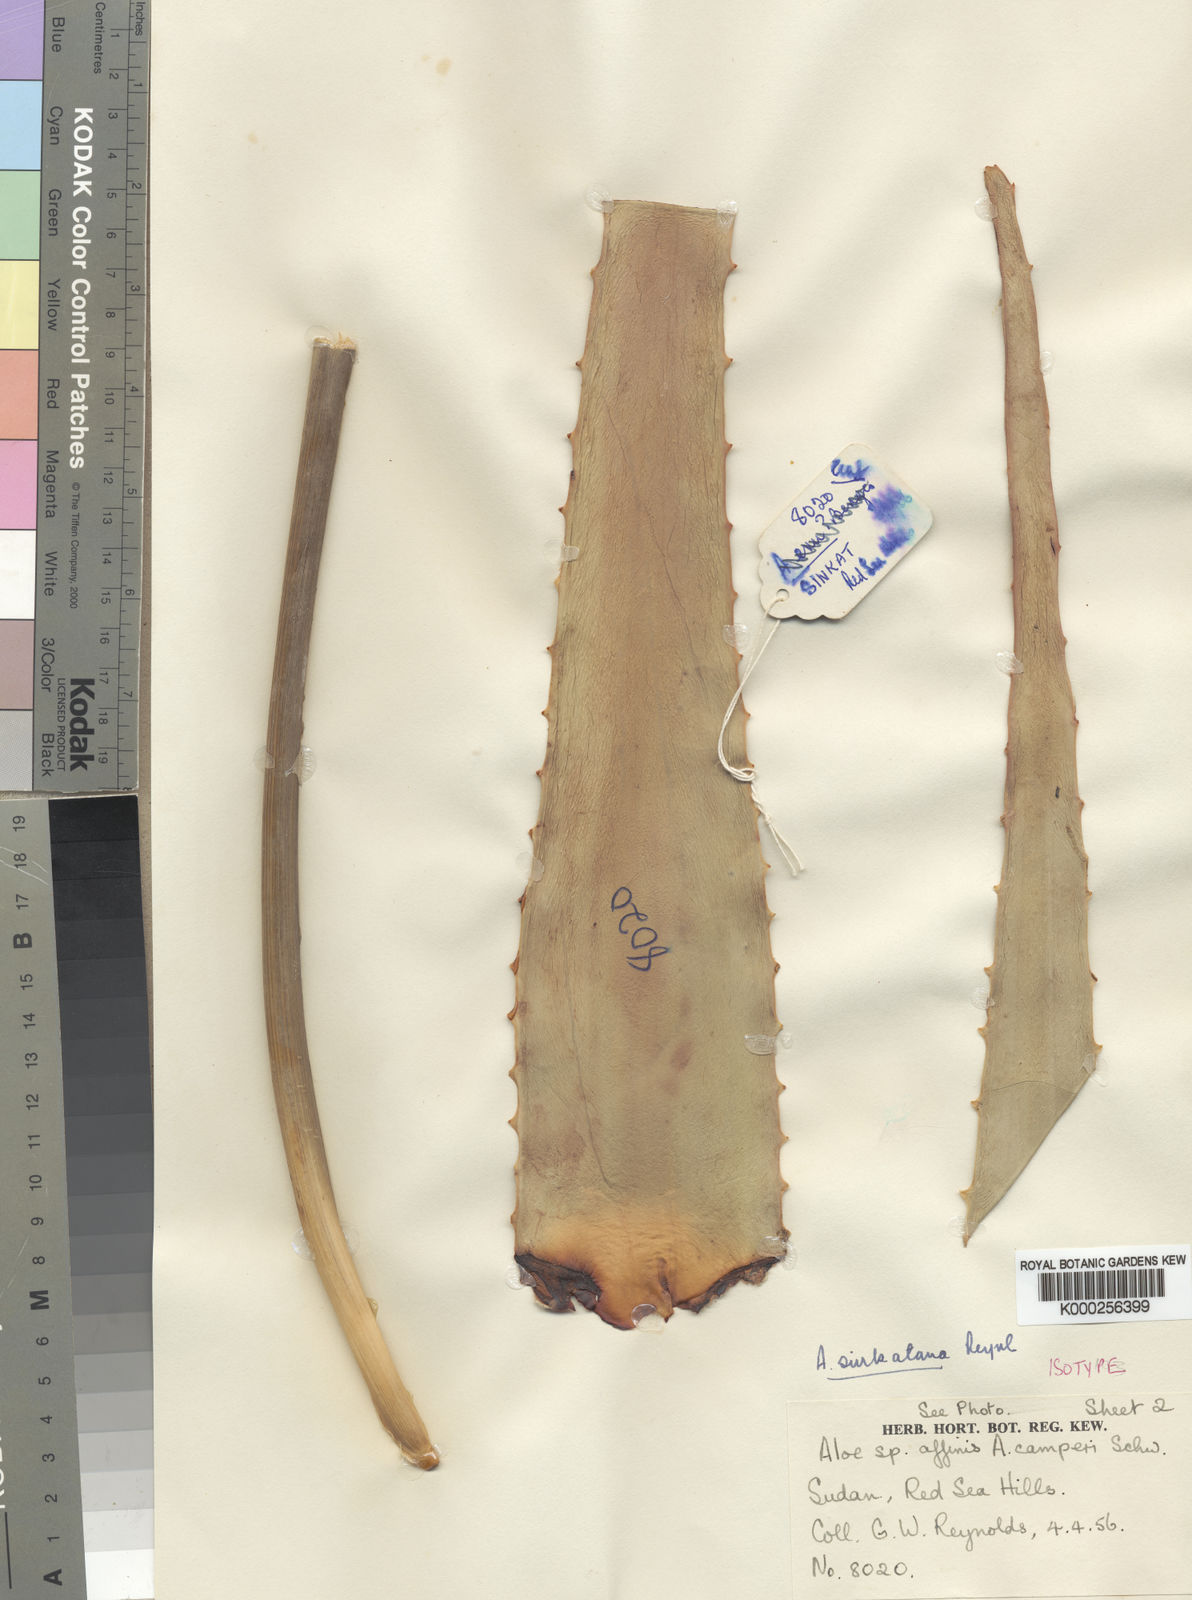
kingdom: Plantae
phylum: Tracheophyta
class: Liliopsida
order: Asparagales
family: Asphodelaceae
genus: Aloe
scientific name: Aloe sinkatana
